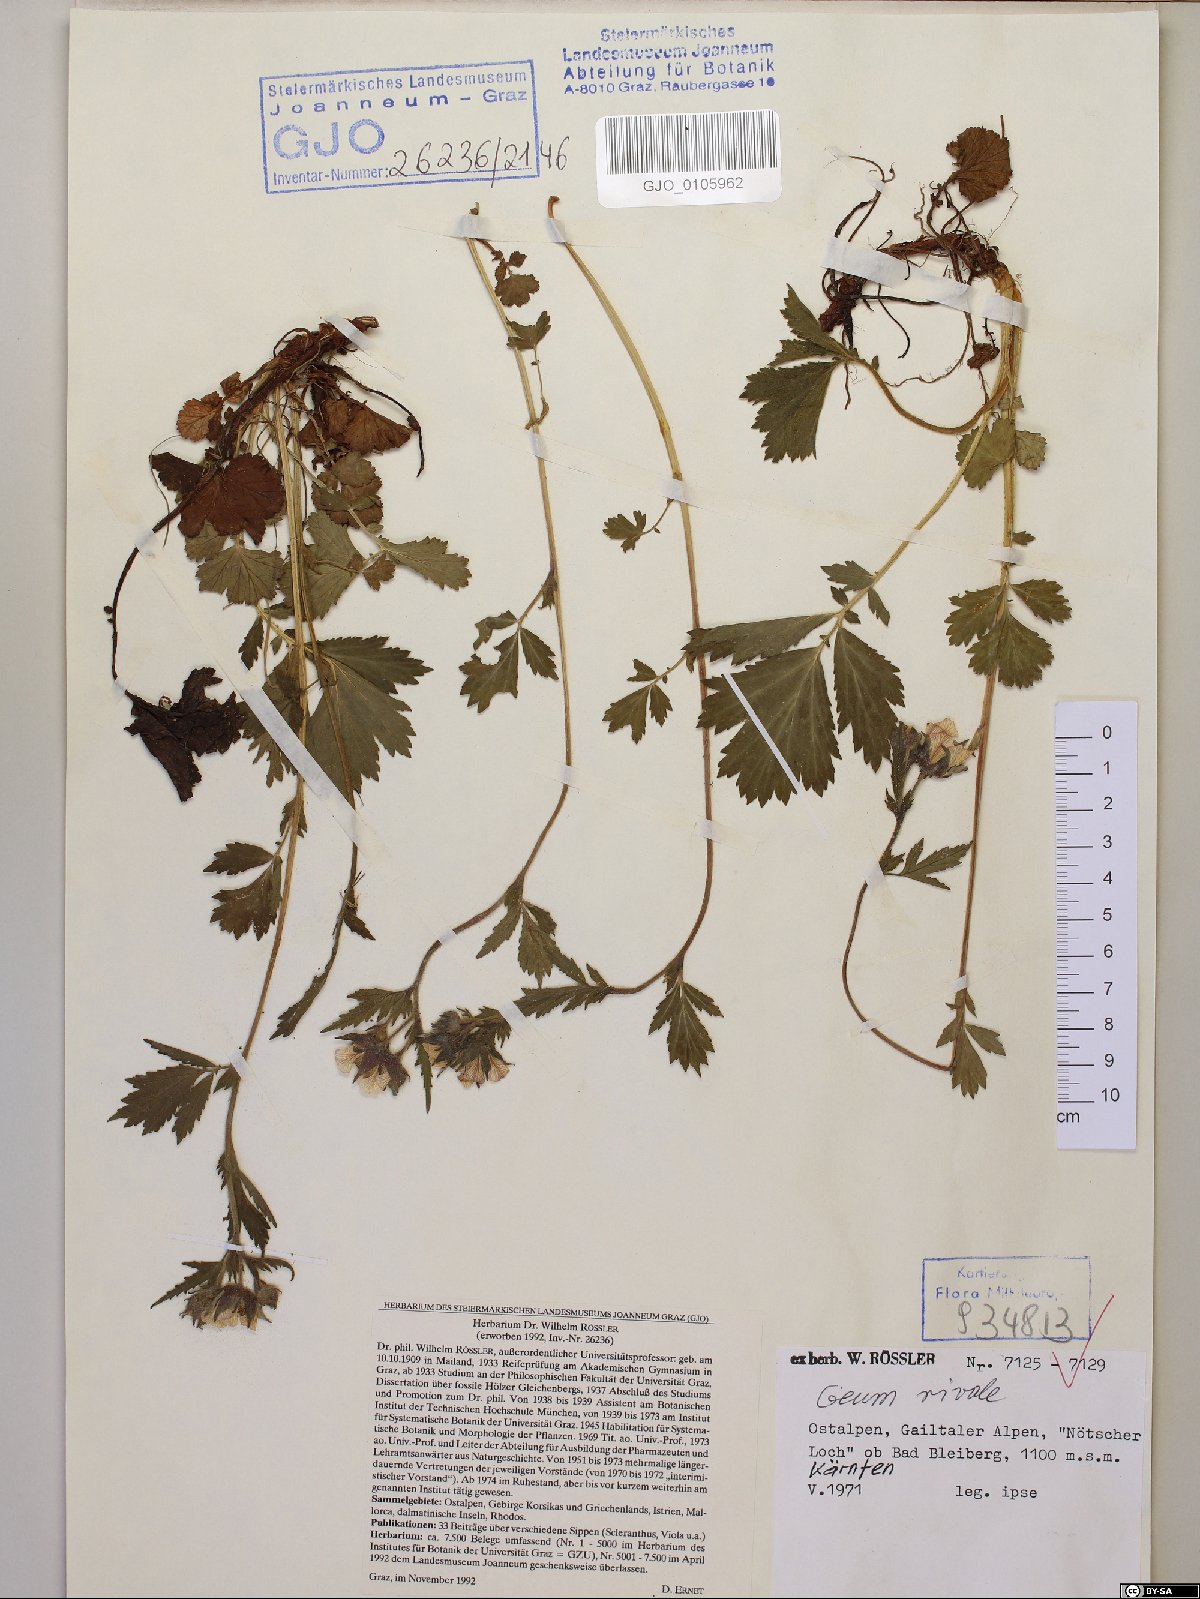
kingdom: Plantae
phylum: Tracheophyta
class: Magnoliopsida
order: Rosales
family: Rosaceae
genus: Geum
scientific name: Geum rivale
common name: Water avens
